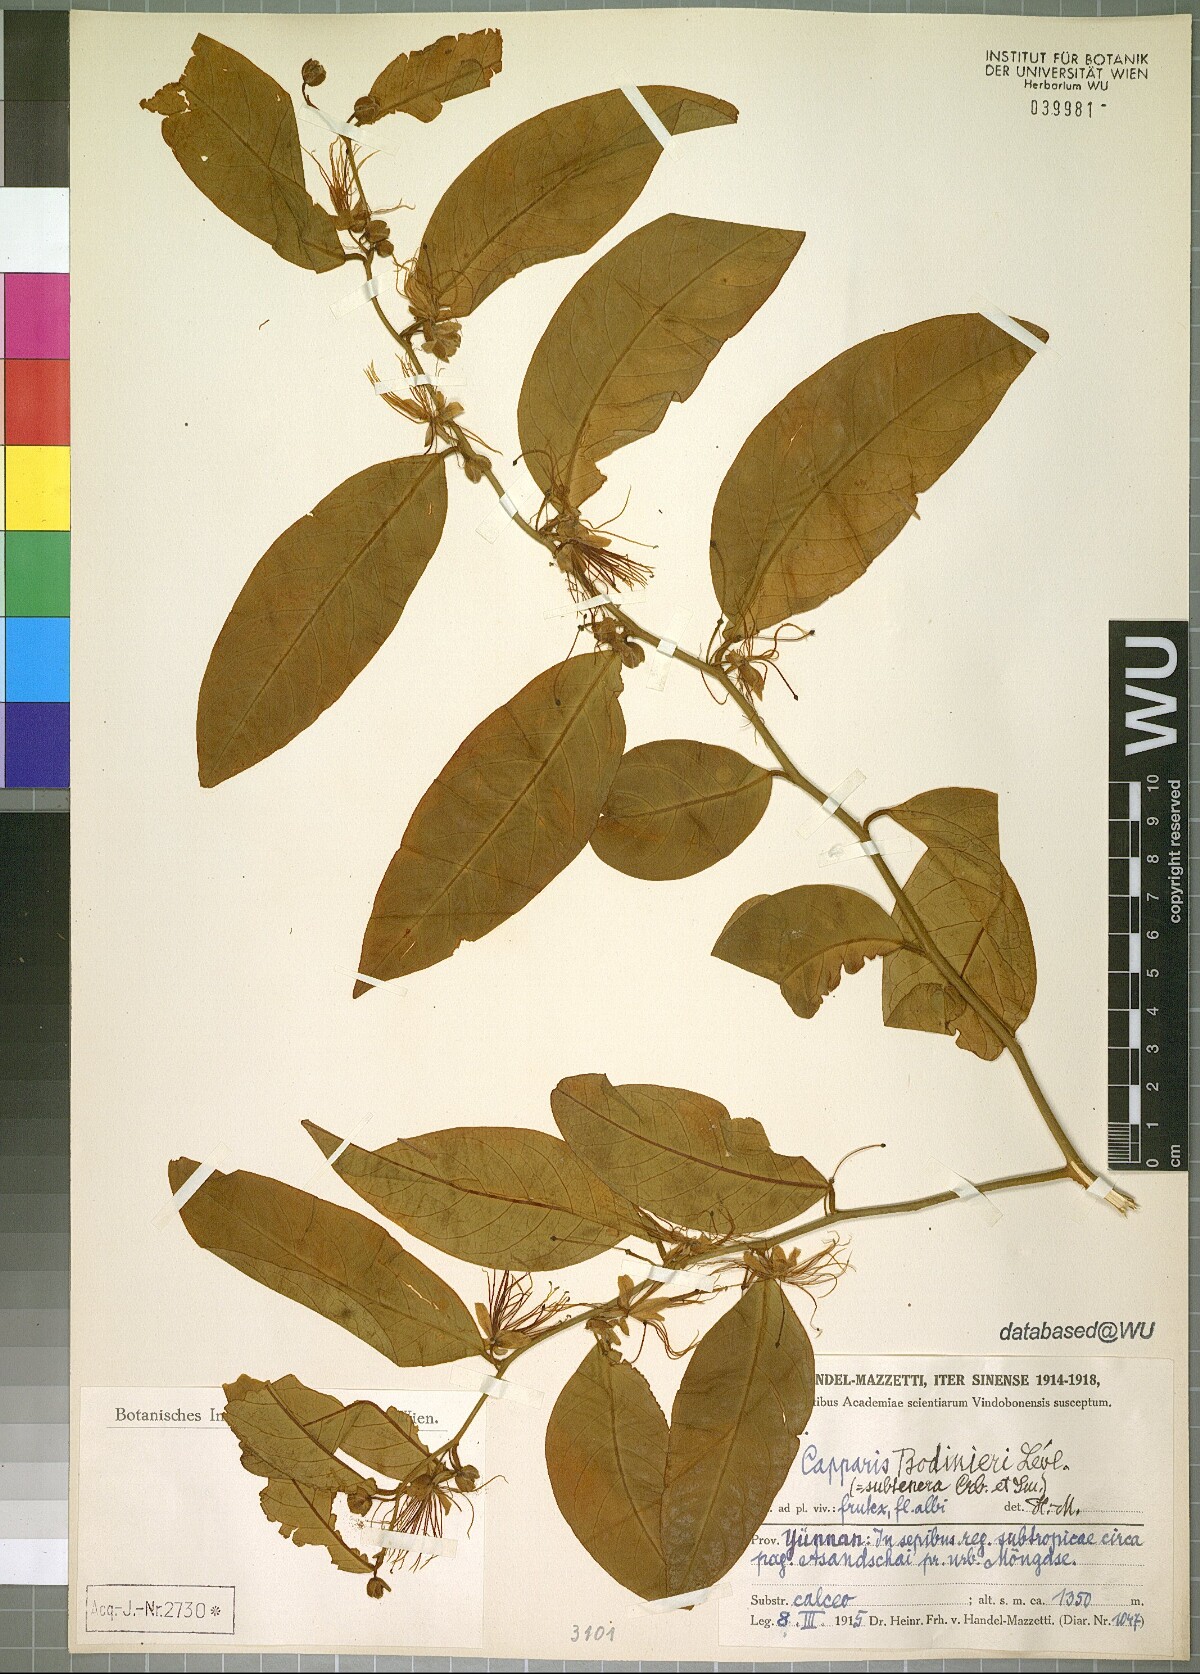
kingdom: Plantae
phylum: Tracheophyta
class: Magnoliopsida
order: Brassicales
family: Capparaceae
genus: Capparis
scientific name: Capparis bodinieri
